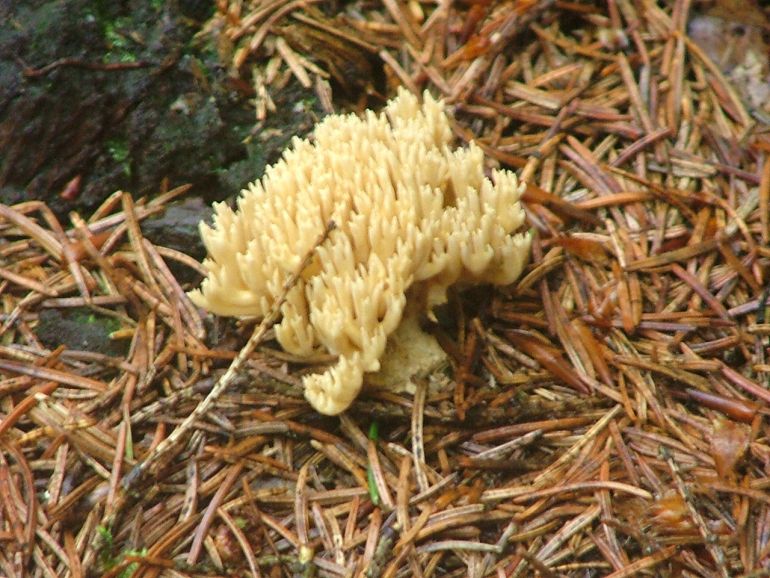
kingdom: Fungi
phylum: Basidiomycota
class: Agaricomycetes
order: Gomphales
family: Gomphaceae
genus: Phaeoclavulina
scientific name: Phaeoclavulina eumorpha
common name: gran-koralsvamp
